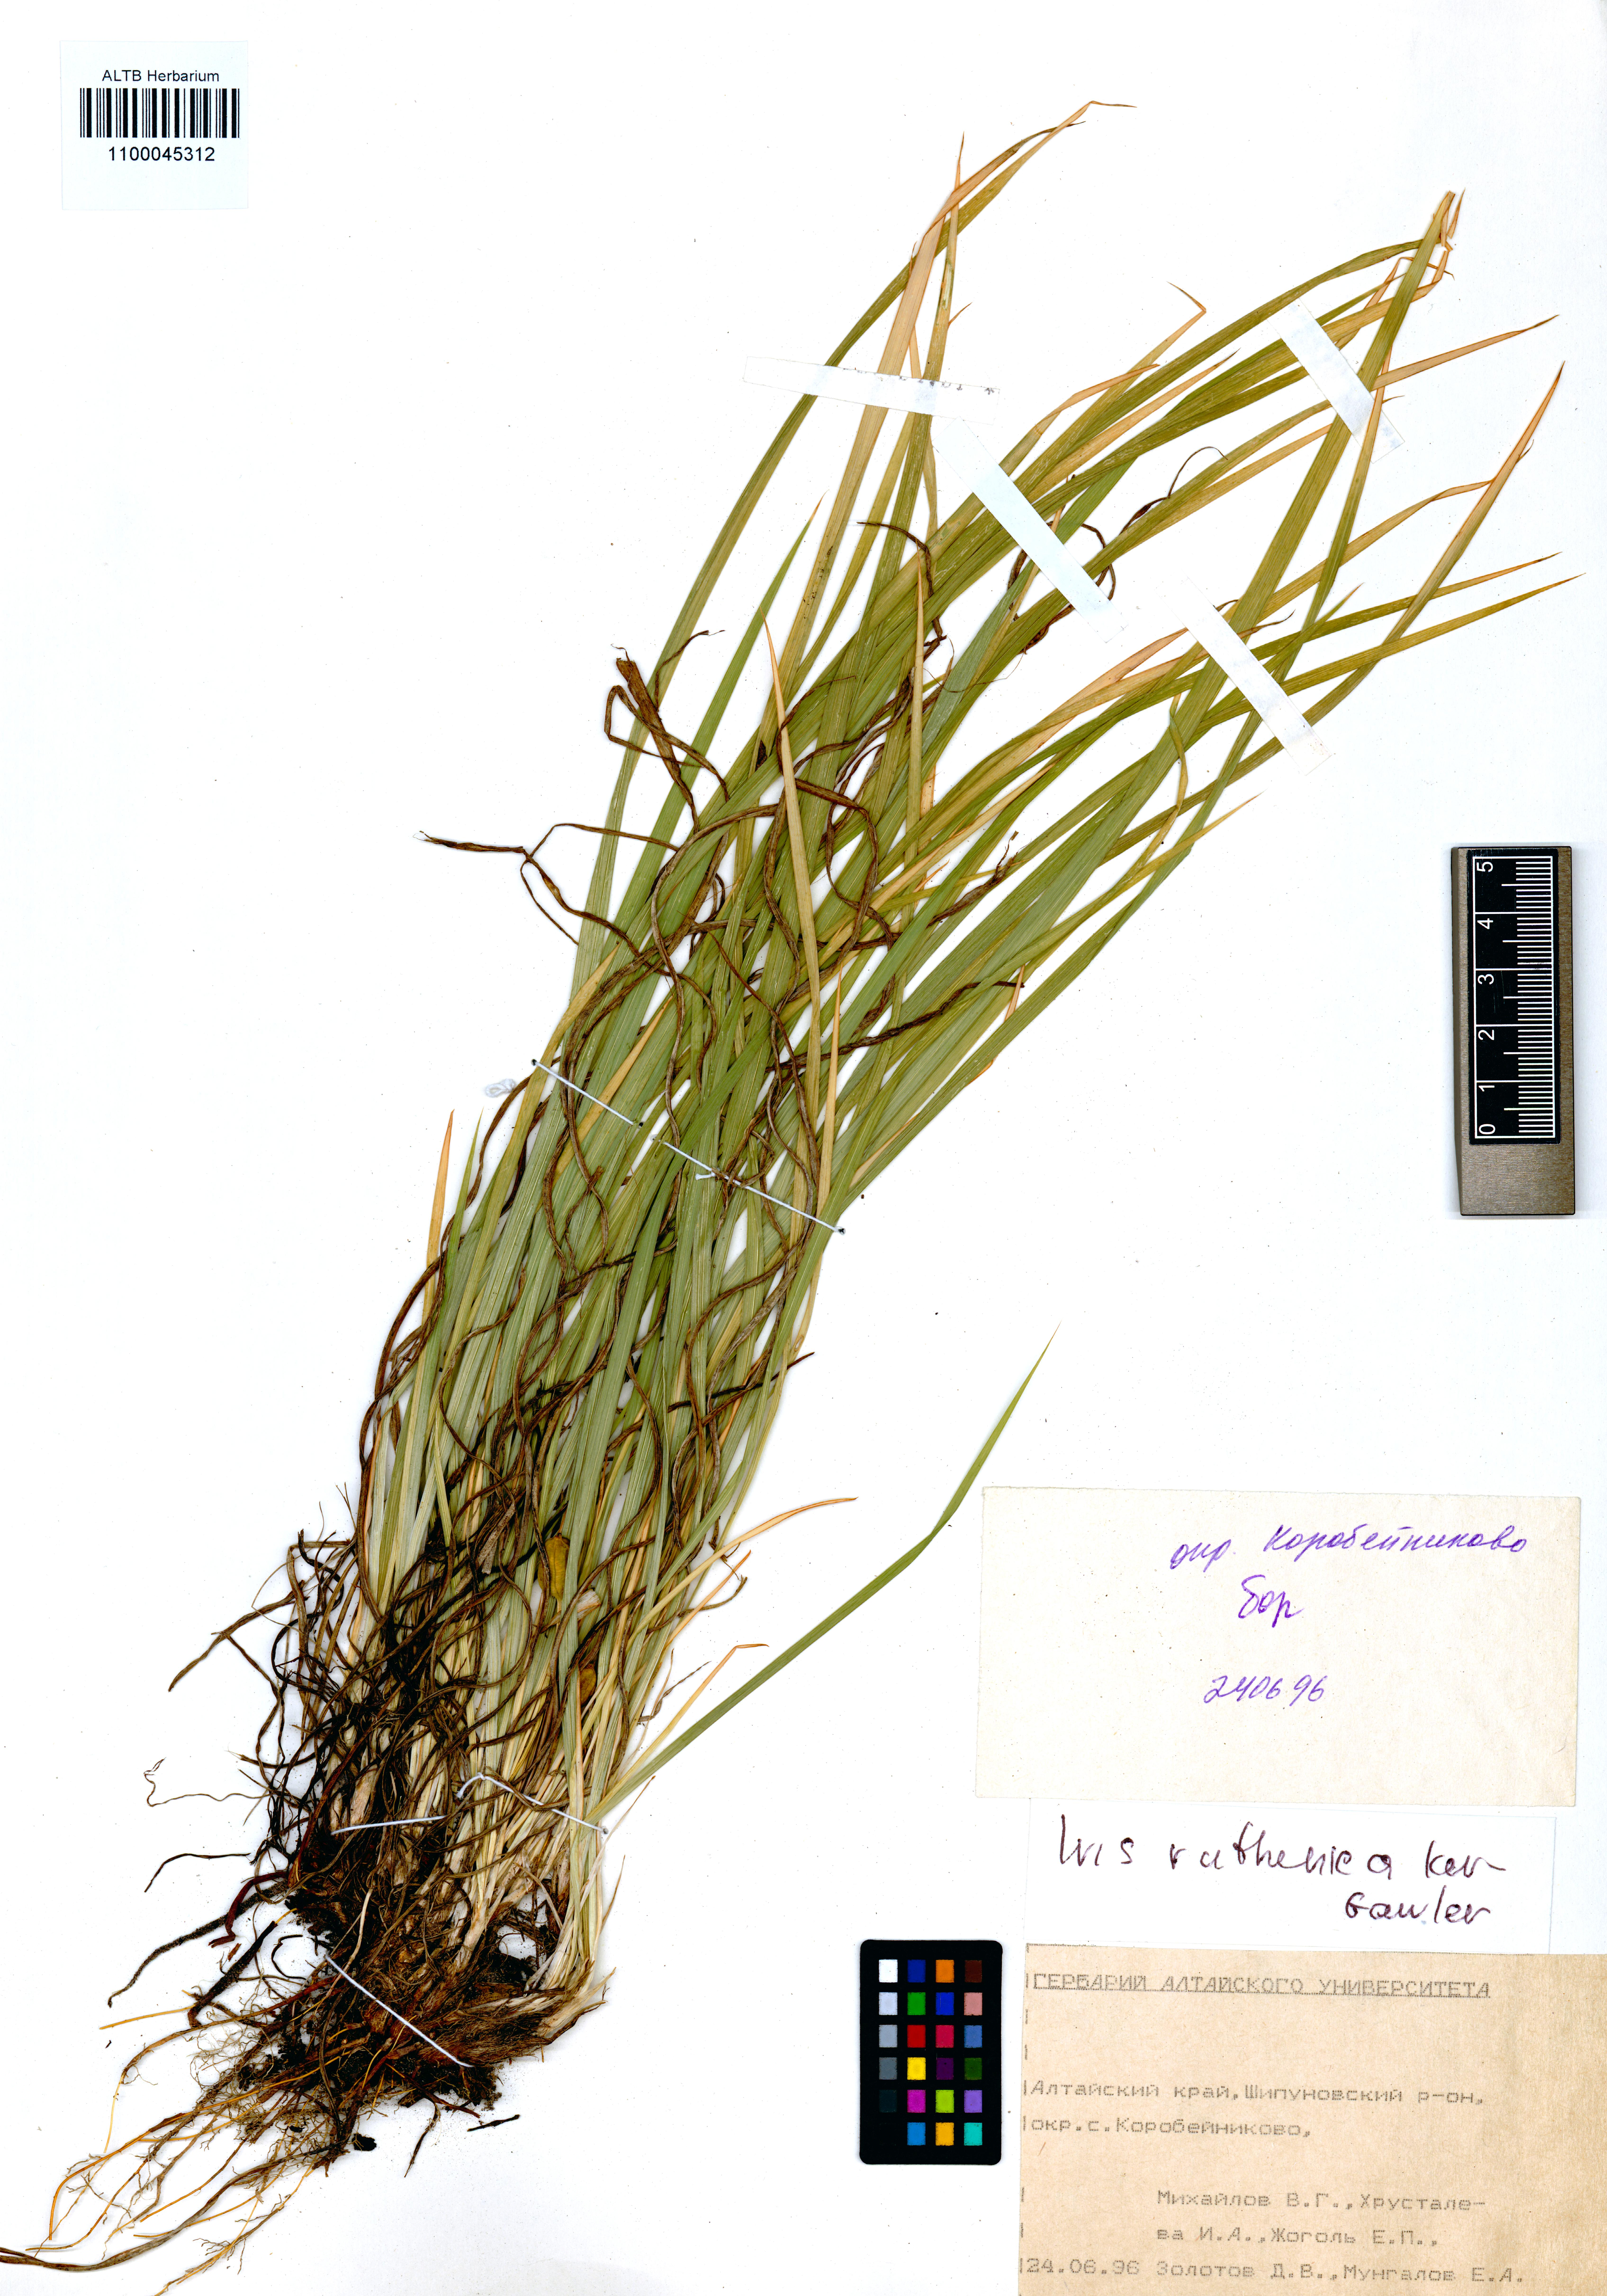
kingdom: Plantae
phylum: Tracheophyta
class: Liliopsida
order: Asparagales
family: Iridaceae
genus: Iris
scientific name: Iris ruthenica
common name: Purple-bract iris
